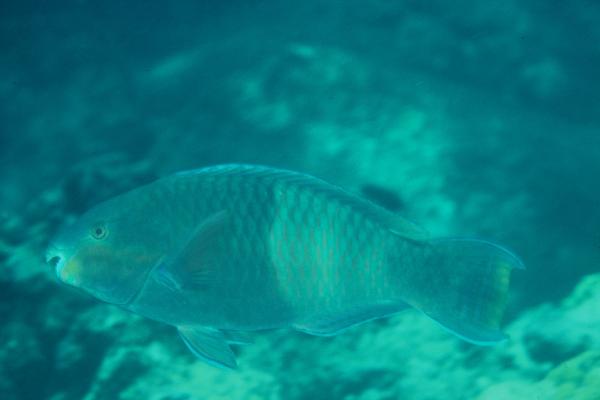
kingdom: Animalia
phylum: Chordata
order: Perciformes
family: Scaridae
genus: Scarus
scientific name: Scarus russelii
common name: Eclipse parrotfish
